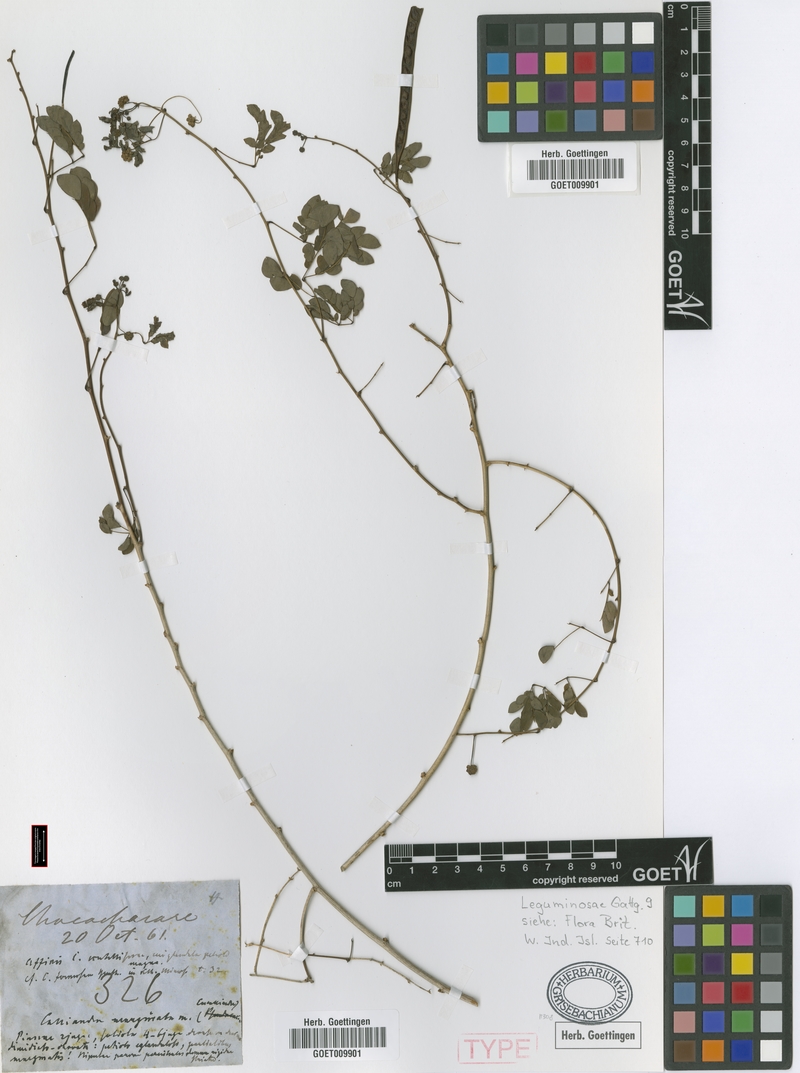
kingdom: Plantae
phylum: Tracheophyta
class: Magnoliopsida
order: Fabales
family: Fabaceae
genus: Zapoteca
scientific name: Zapoteca formosa
